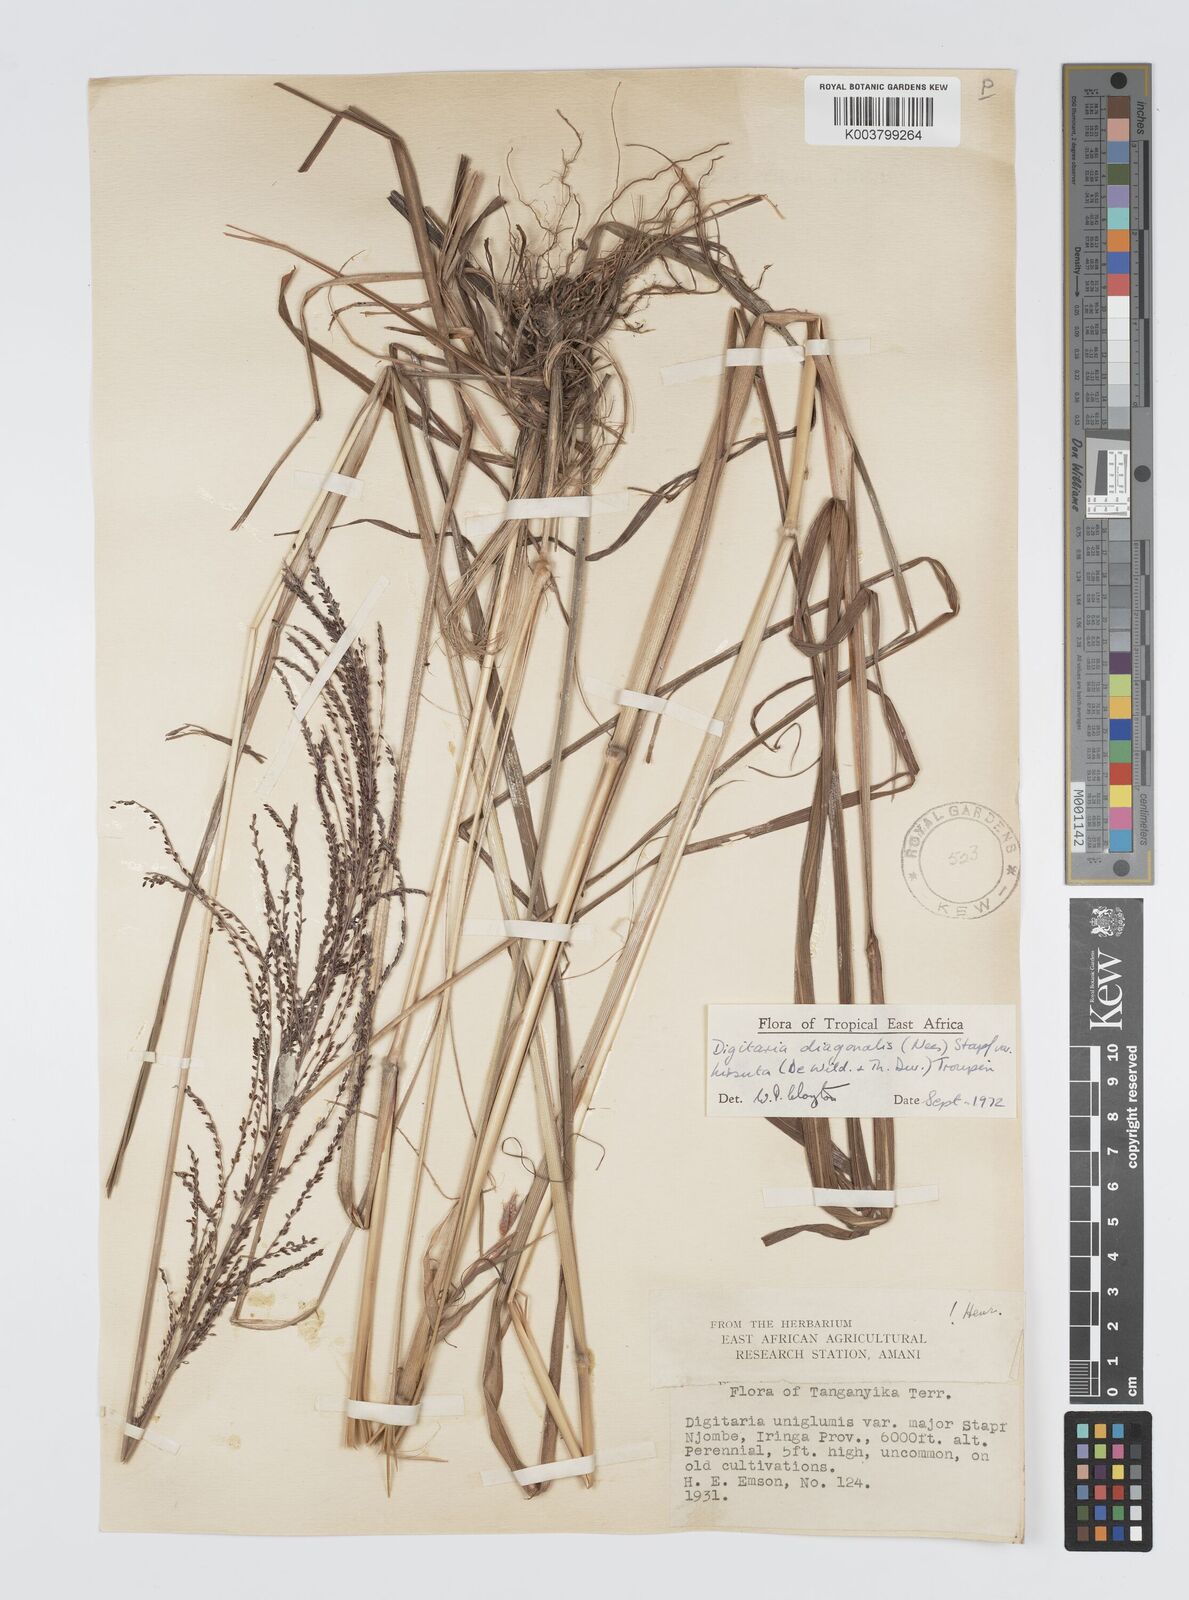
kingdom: Plantae
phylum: Tracheophyta
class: Liliopsida
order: Poales
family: Poaceae
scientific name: Poaceae
